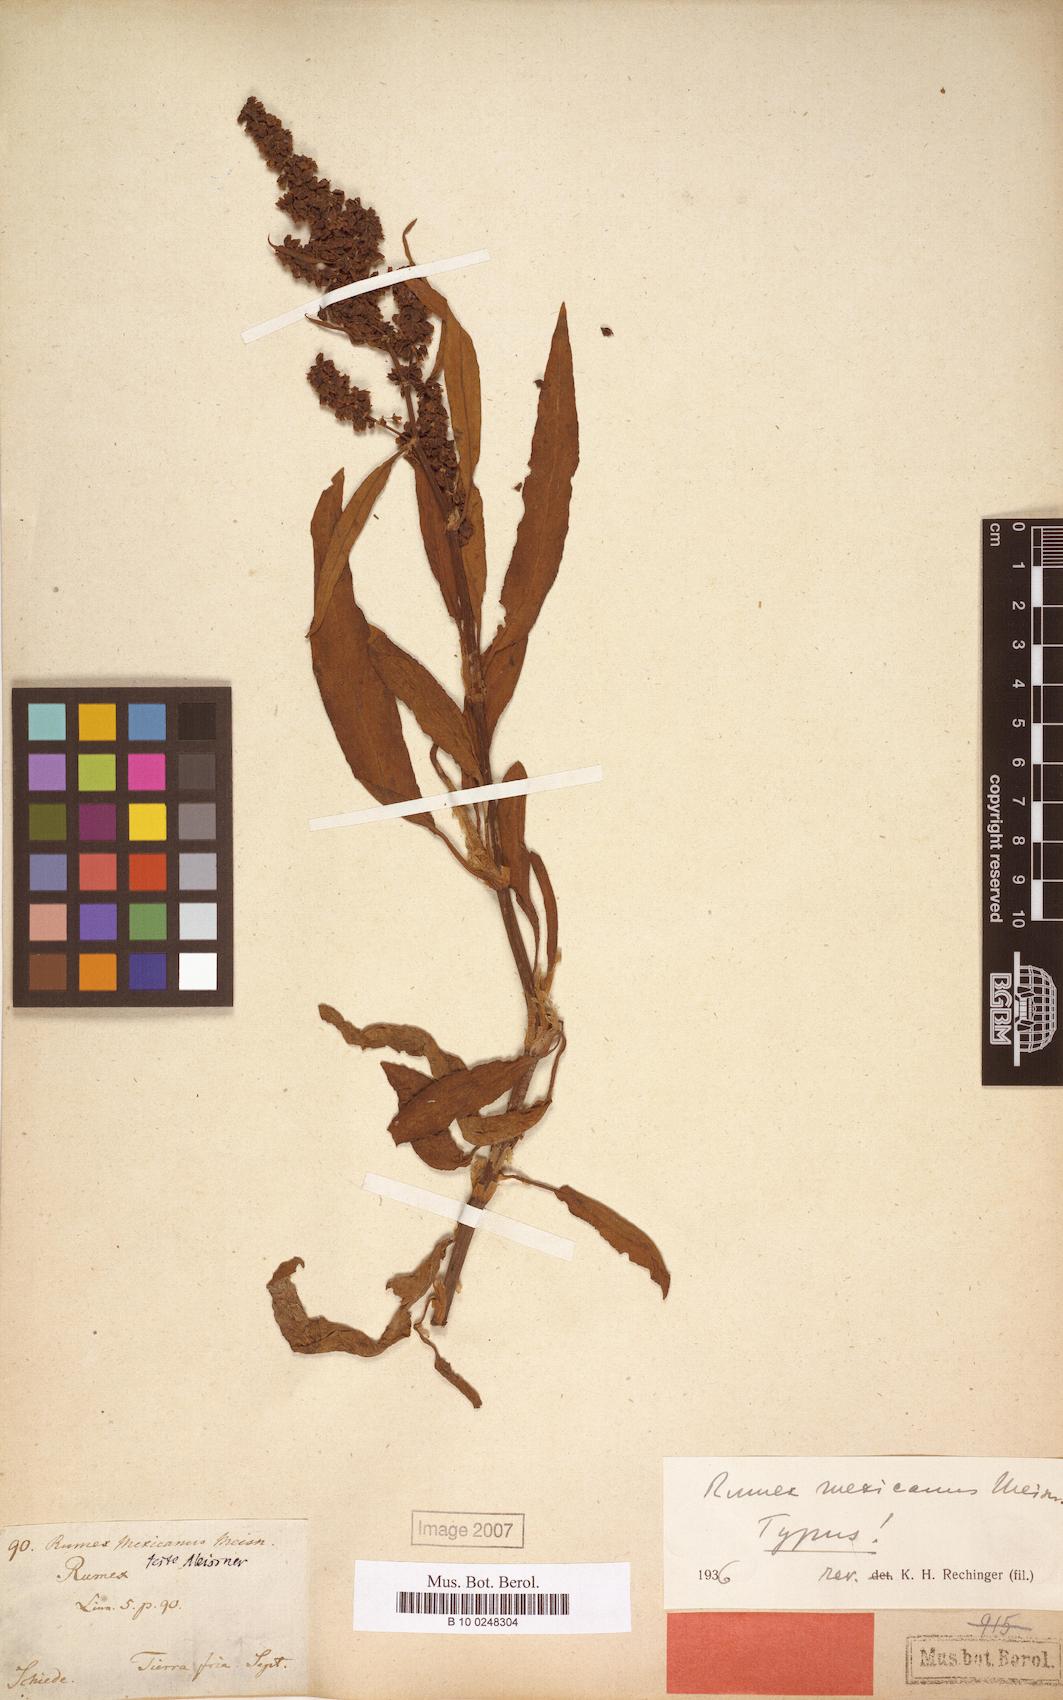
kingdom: Plantae
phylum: Tracheophyta
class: Magnoliopsida
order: Caryophyllales
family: Polygonaceae
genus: Rumex
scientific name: Rumex triangulivalvis
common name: Triangular-valve dock
